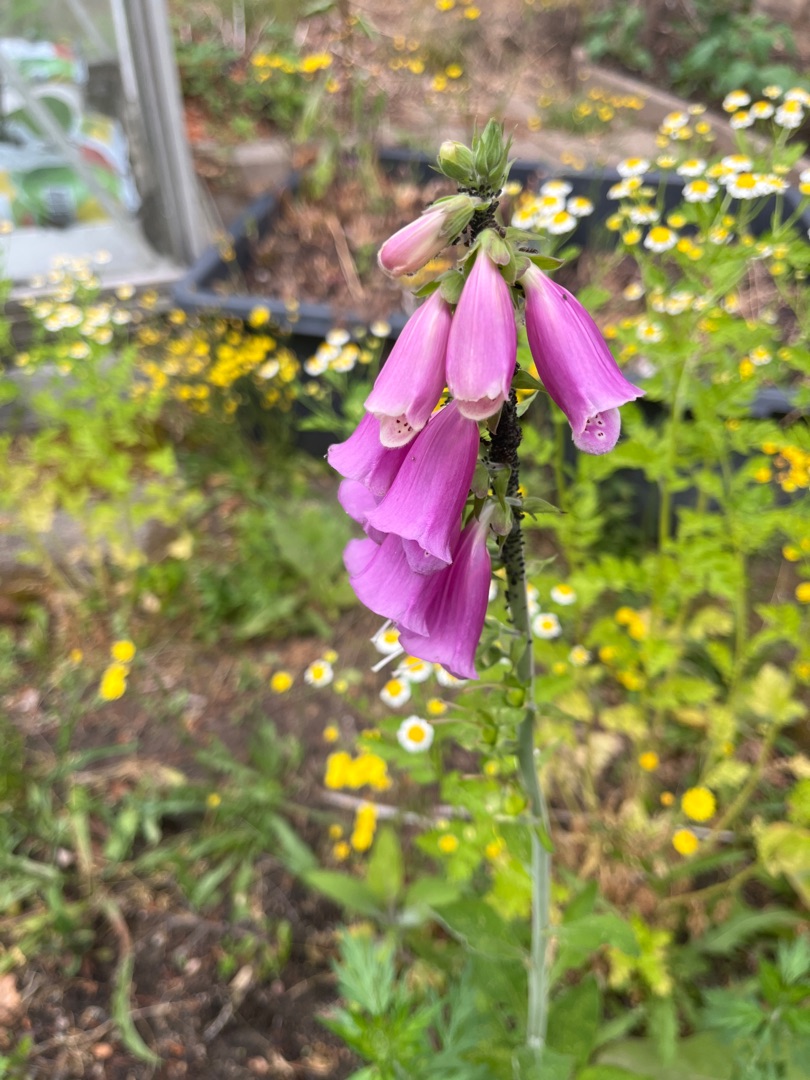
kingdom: Plantae
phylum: Tracheophyta
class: Magnoliopsida
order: Lamiales
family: Plantaginaceae
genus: Digitalis
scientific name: Digitalis purpurea
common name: Almindelig fingerbøl
